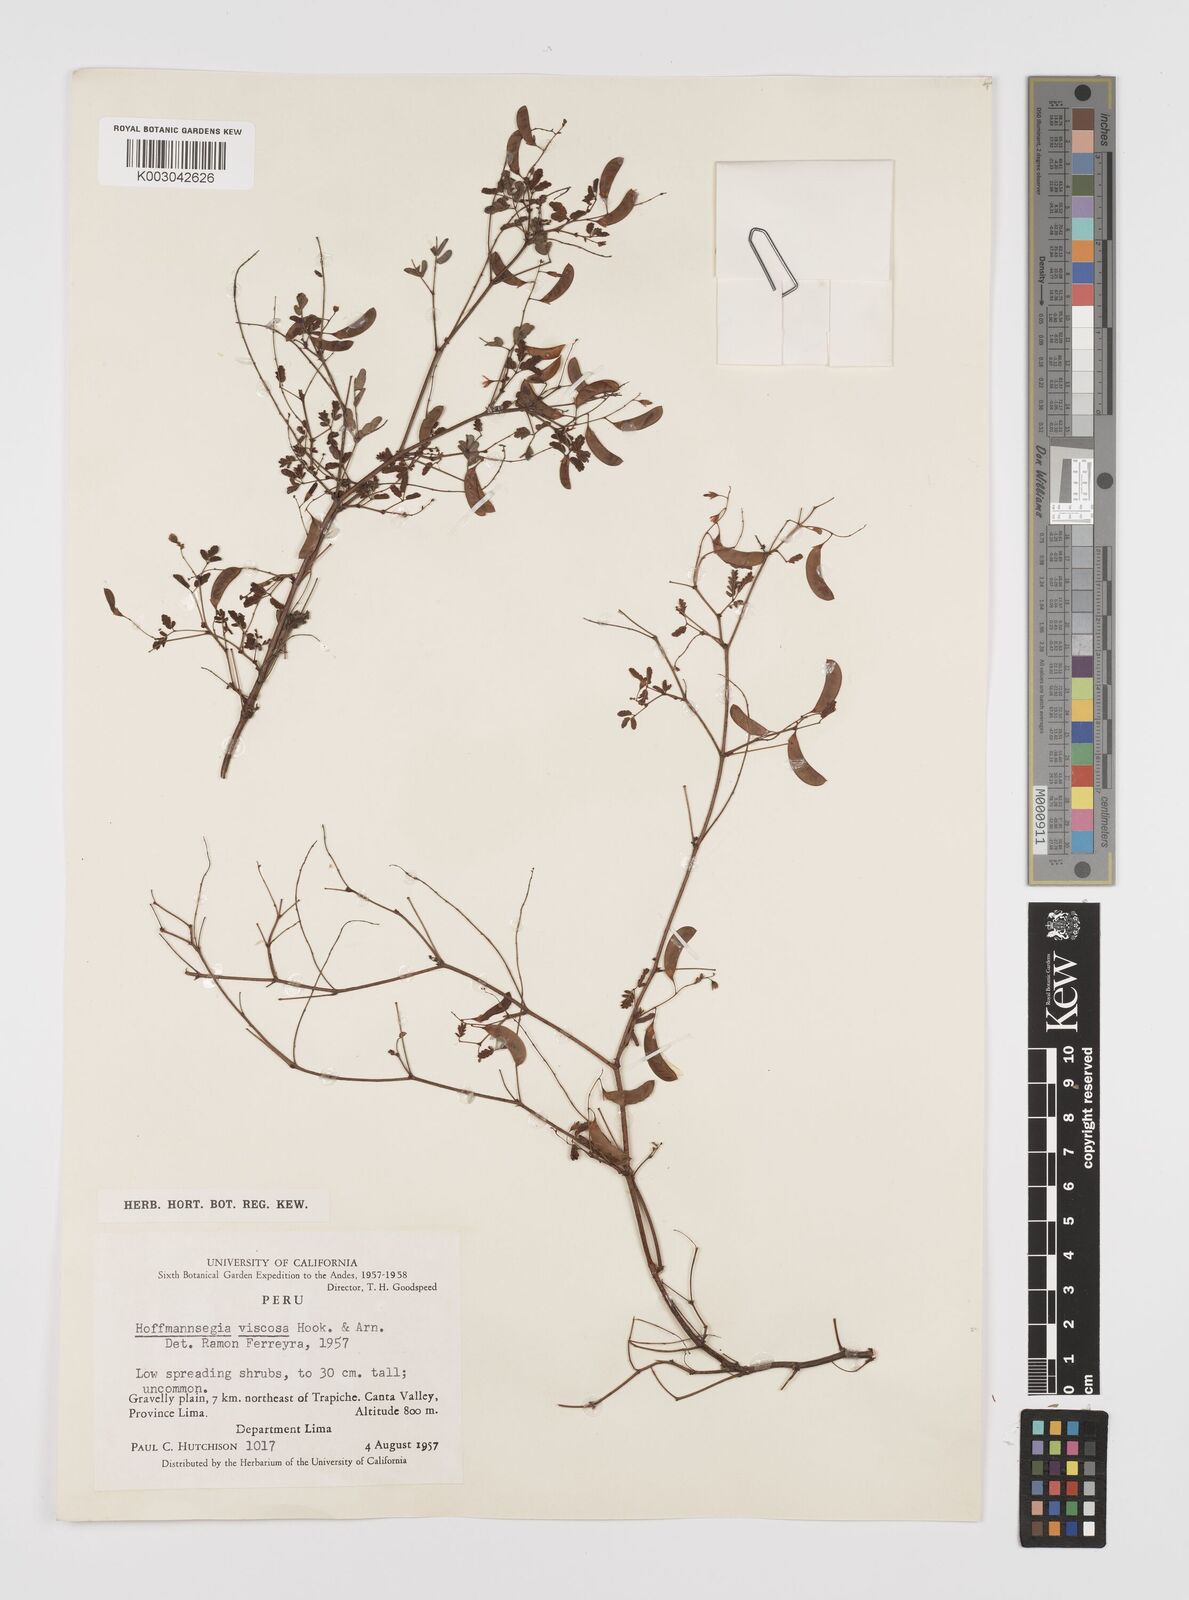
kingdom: Plantae
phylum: Tracheophyta
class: Magnoliopsida
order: Fabales
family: Fabaceae
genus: Hoffmannseggia
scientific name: Hoffmannseggia viscosa
